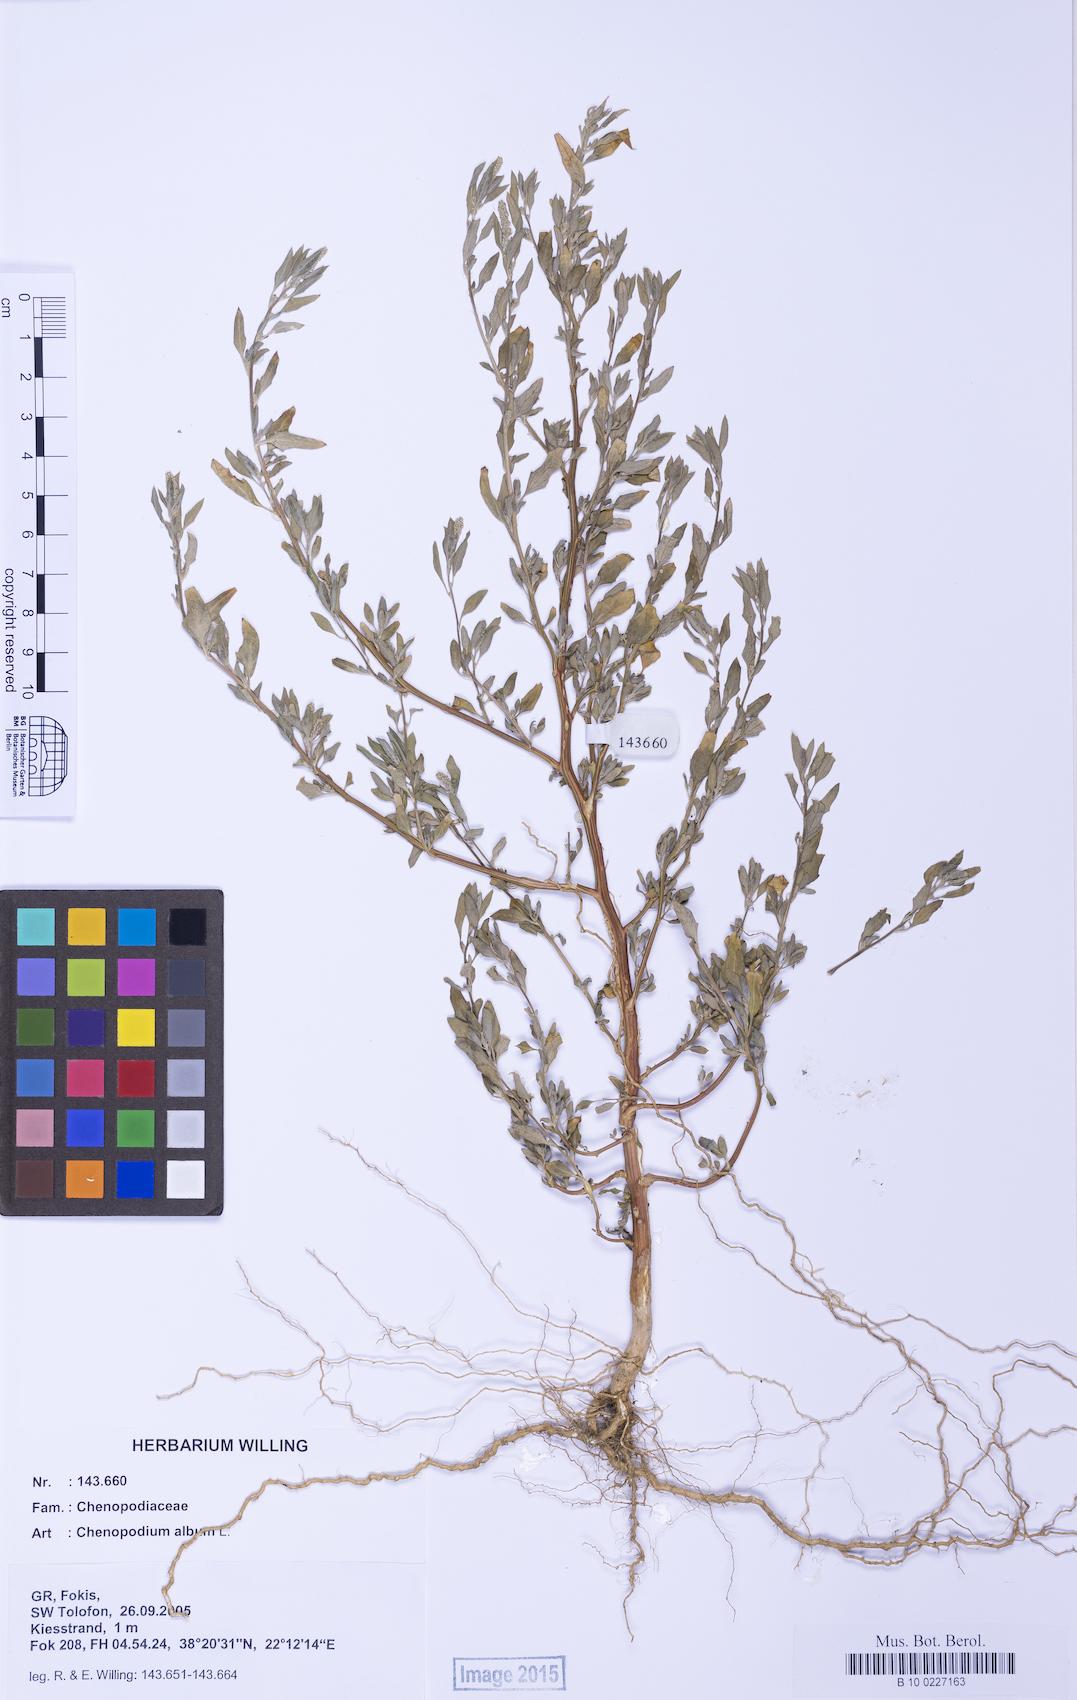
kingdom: Plantae
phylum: Tracheophyta
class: Magnoliopsida
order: Caryophyllales
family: Amaranthaceae
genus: Chenopodium
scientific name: Chenopodium album
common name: Fat-hen
